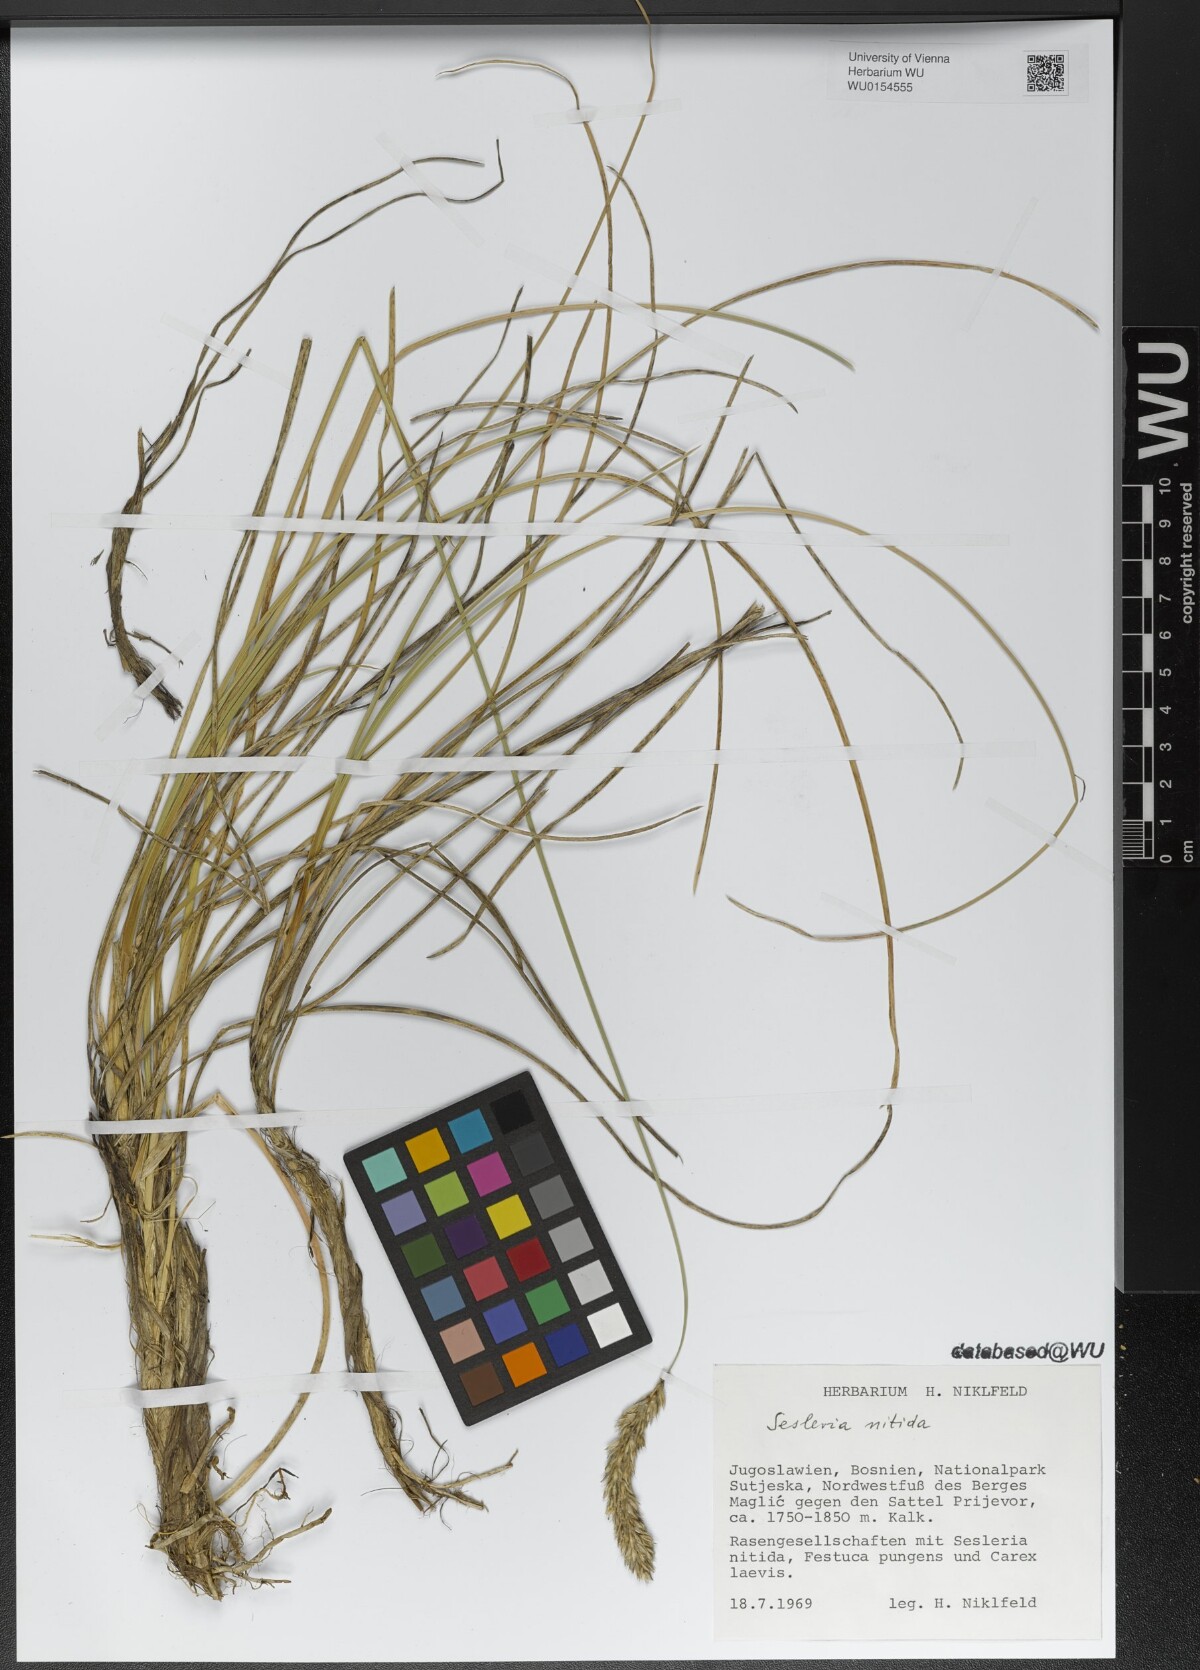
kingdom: Plantae
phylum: Tracheophyta
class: Liliopsida
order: Poales
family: Poaceae
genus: Sesleria
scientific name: Sesleria nitida
